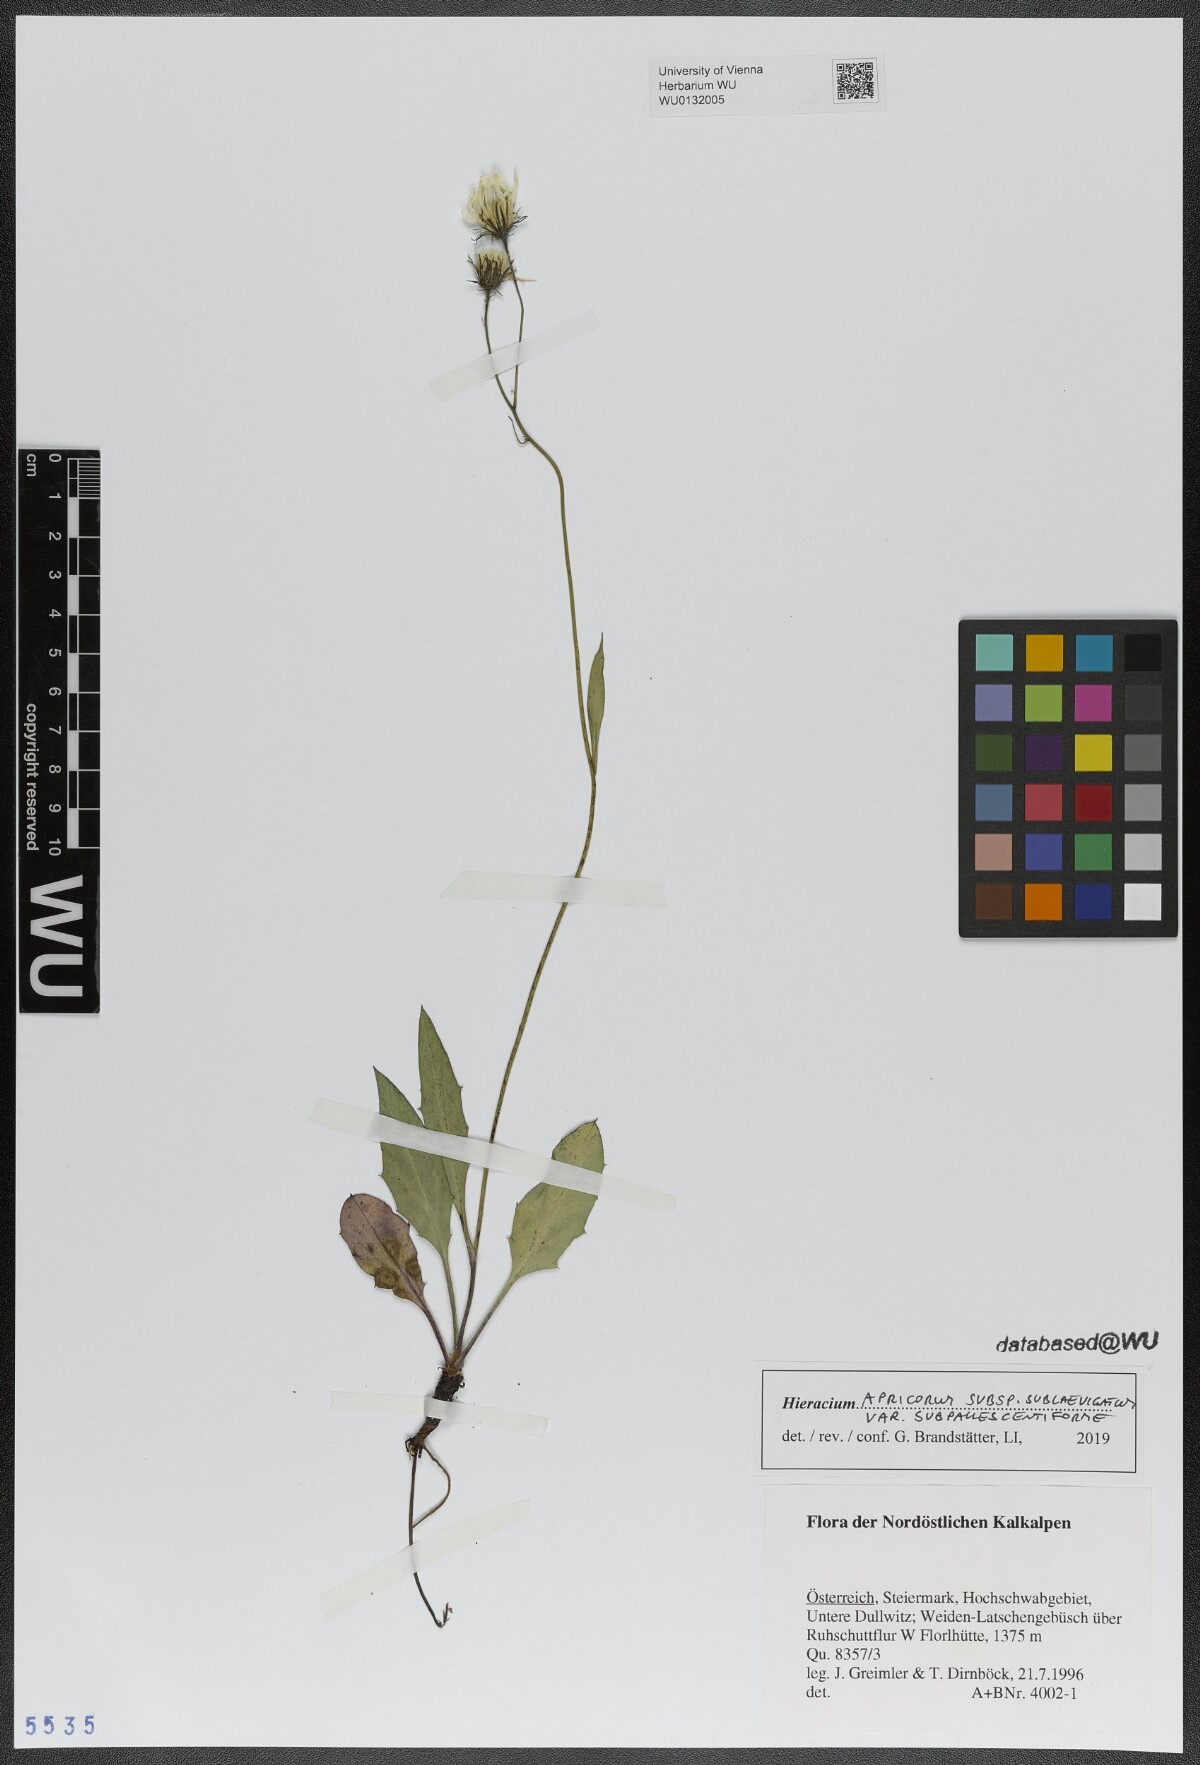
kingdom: Plantae
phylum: Tracheophyta
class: Magnoliopsida
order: Asterales
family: Asteraceae
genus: Hieracium
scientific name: Hieracium apricorum
